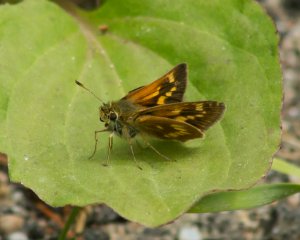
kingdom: Animalia
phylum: Arthropoda
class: Insecta
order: Lepidoptera
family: Hesperiidae
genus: Polites
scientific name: Polites
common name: Long Dash Skipper
